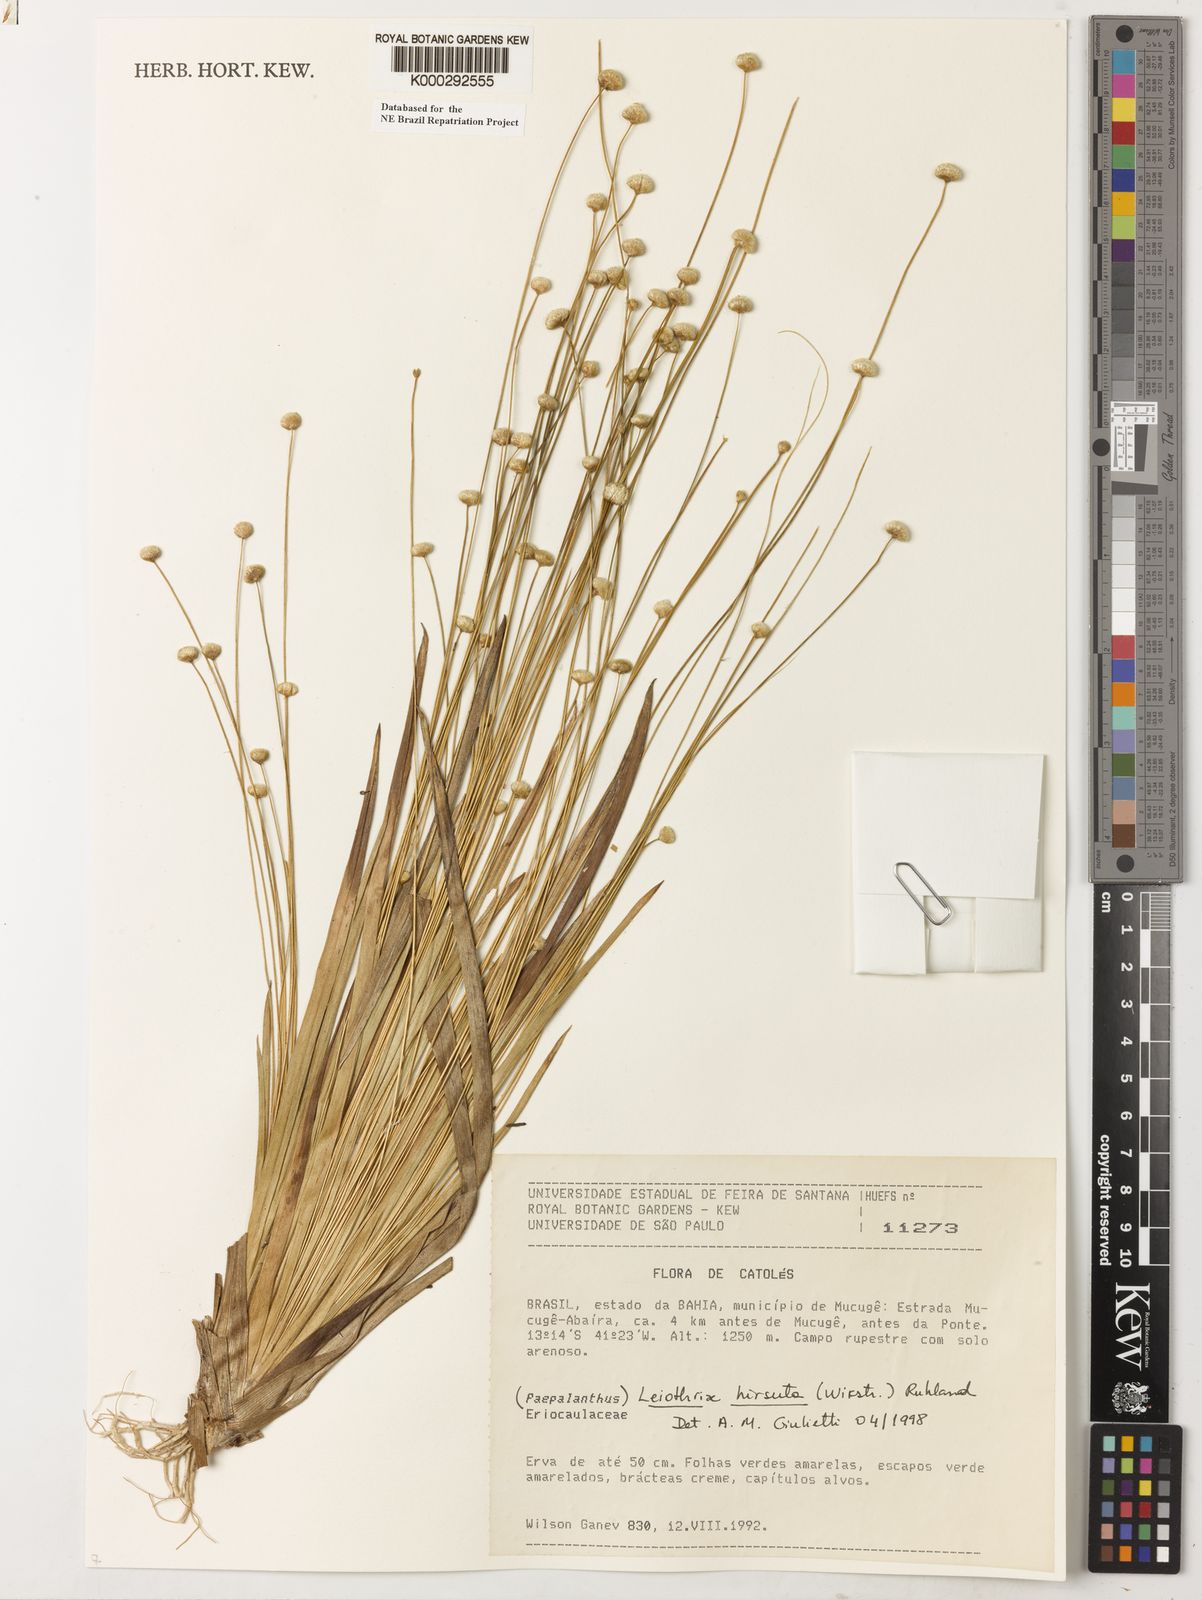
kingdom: Plantae
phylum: Tracheophyta
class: Liliopsida
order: Poales
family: Eriocaulaceae
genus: Leiothrix
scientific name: Leiothrix hirsuta
